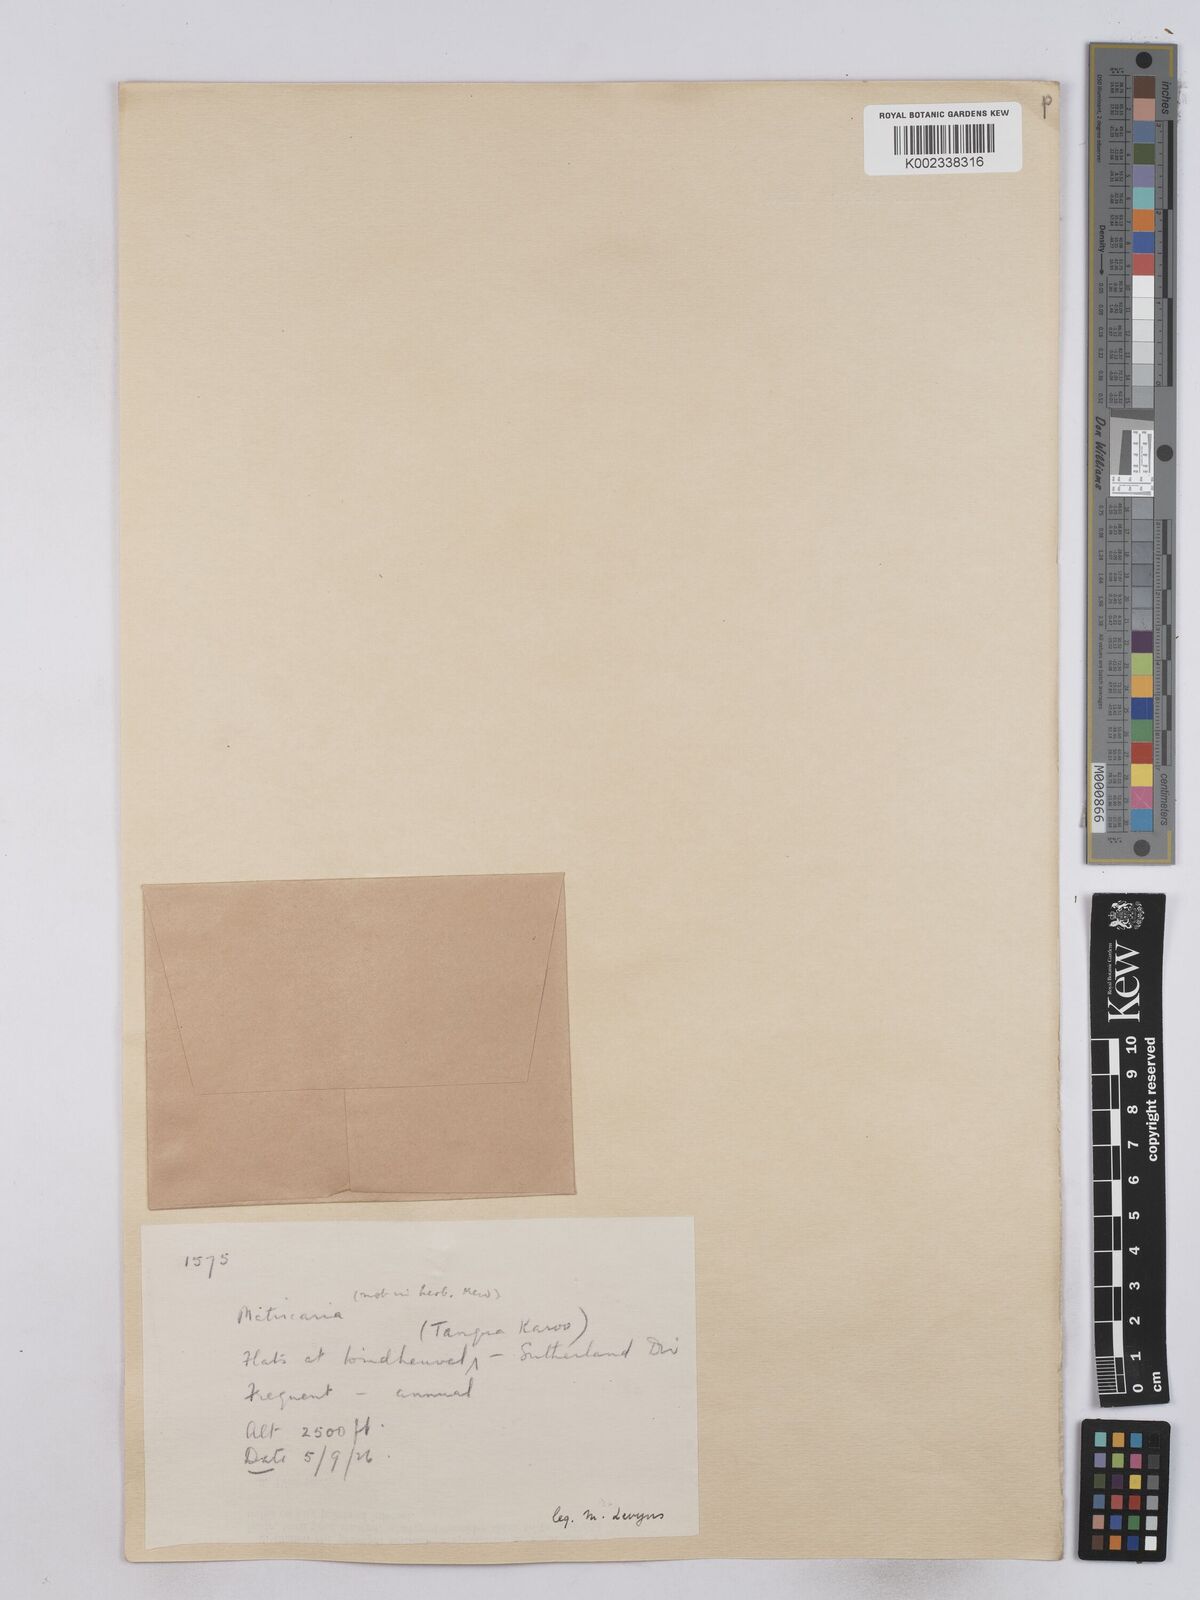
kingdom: Plantae
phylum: Tracheophyta
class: Magnoliopsida
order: Asterales
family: Asteraceae
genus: Matricaria
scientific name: Matricaria
